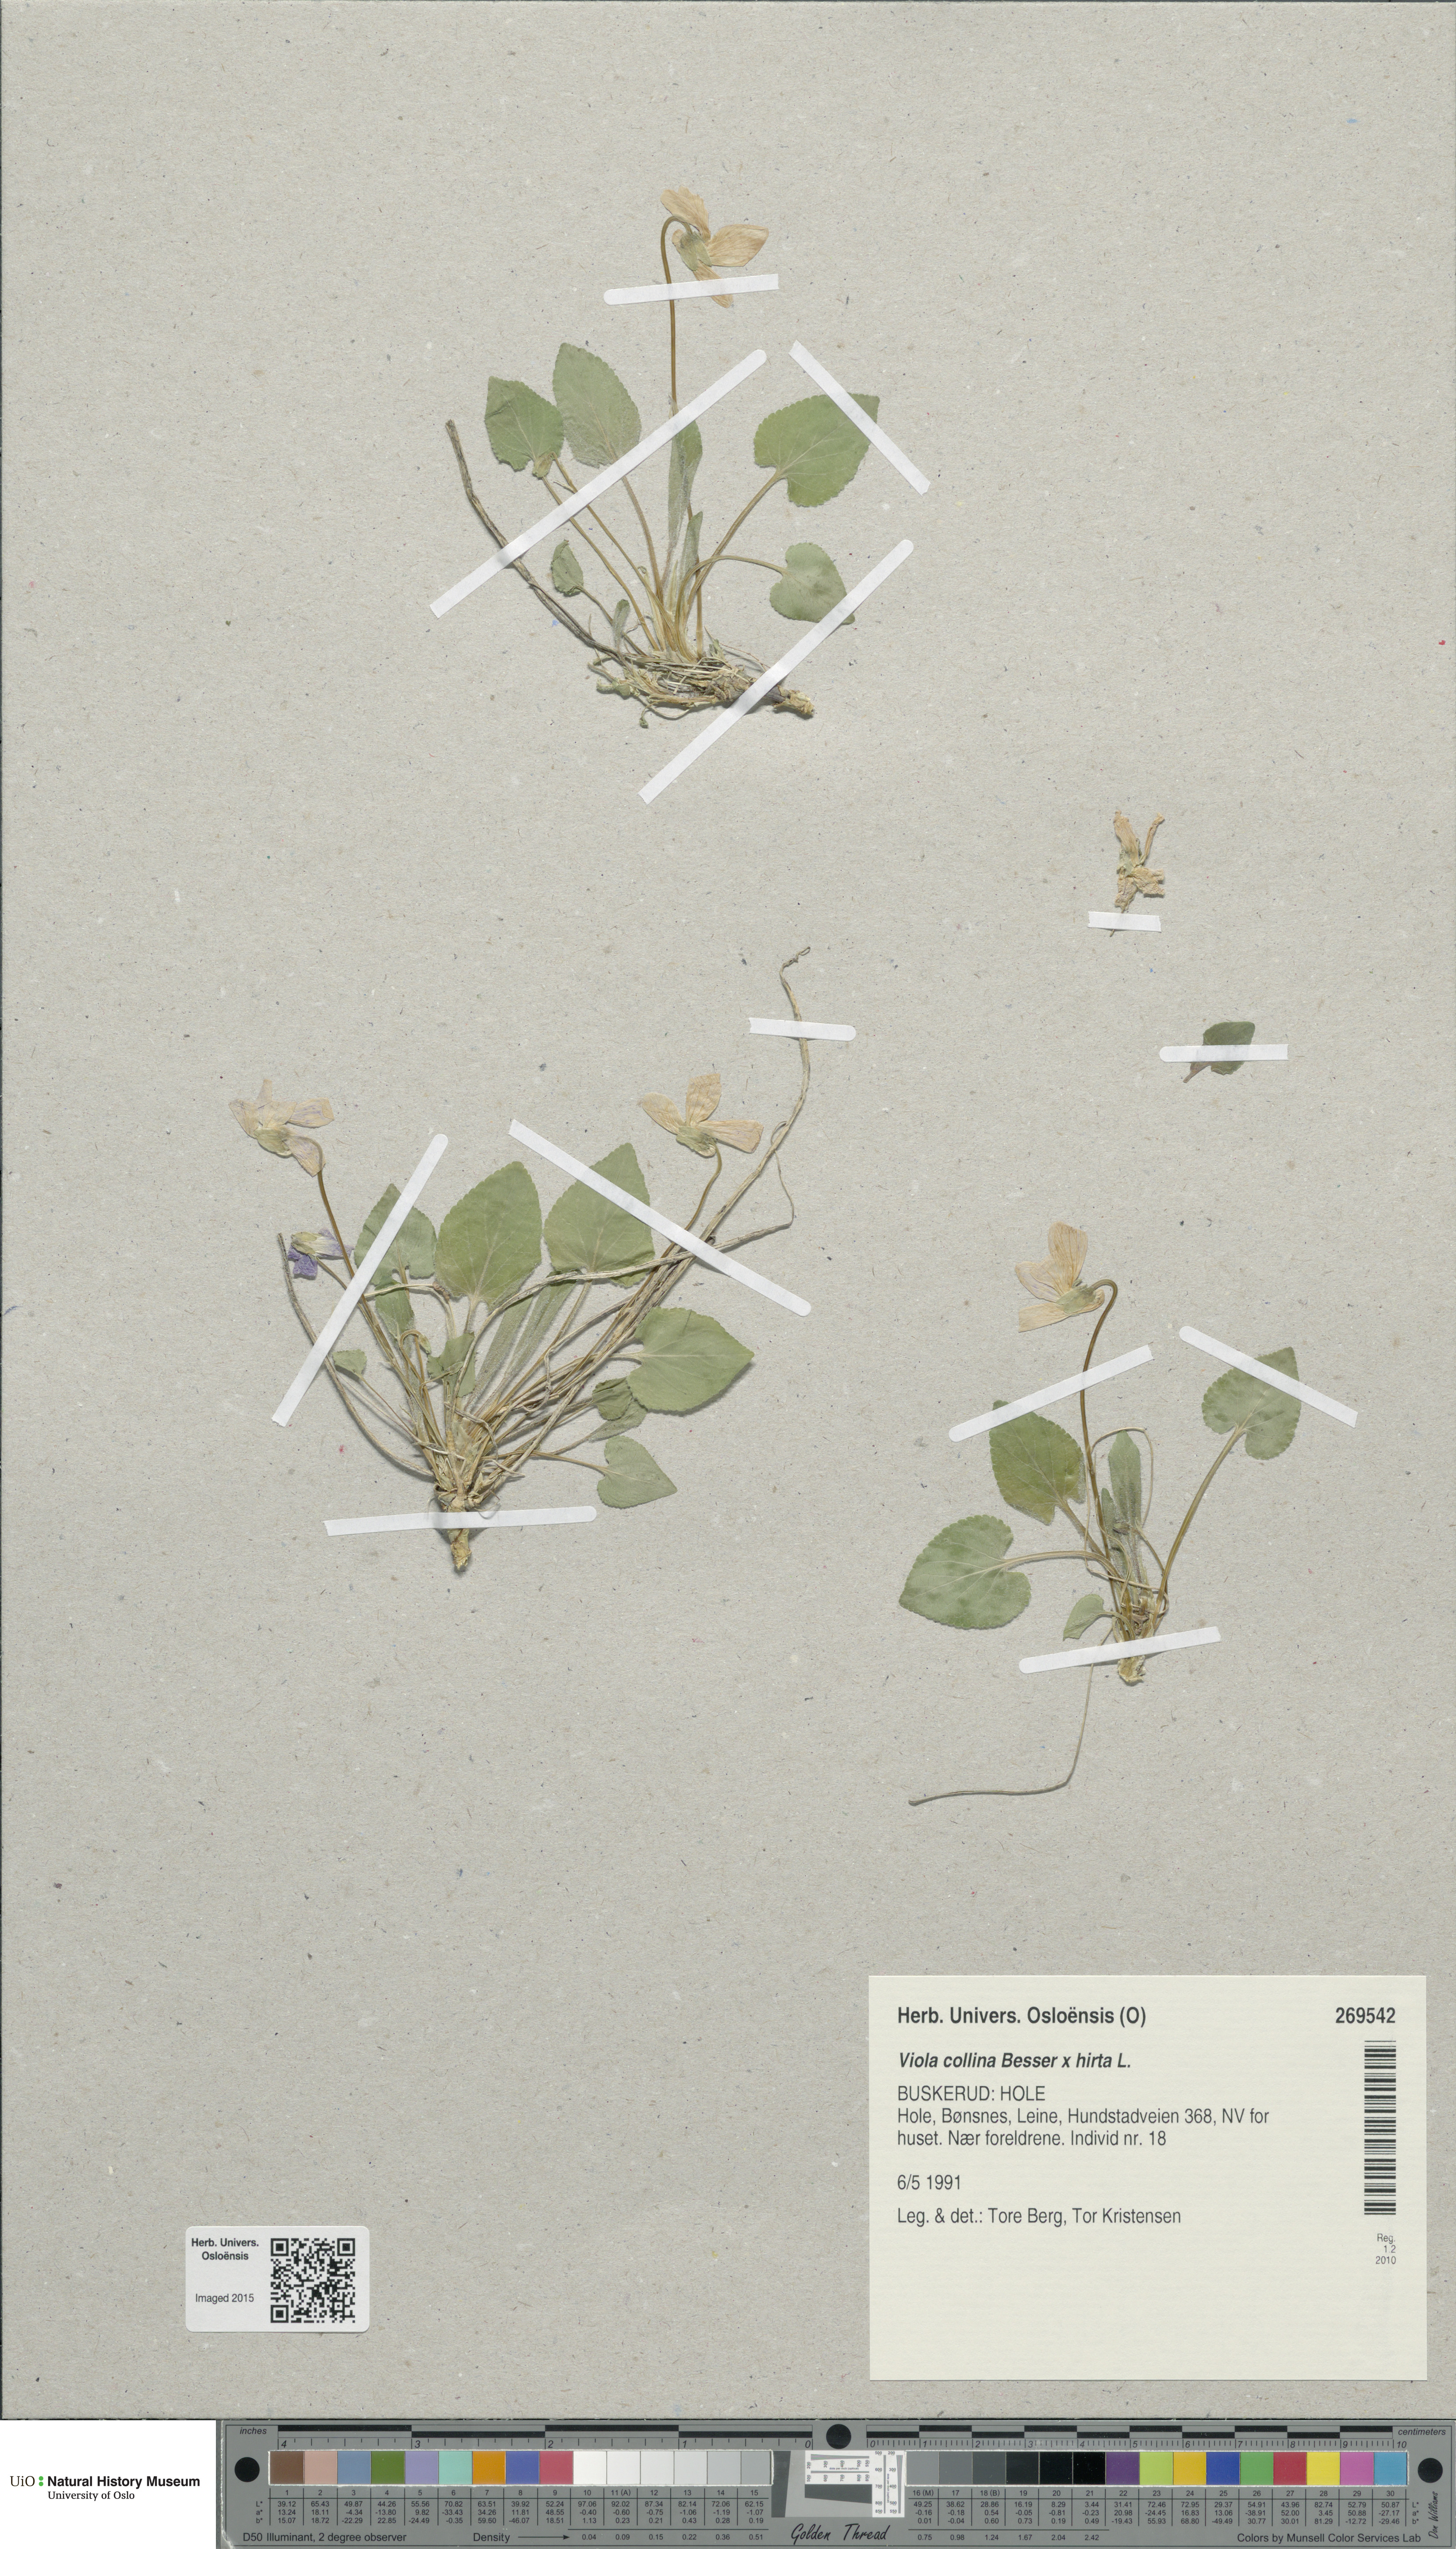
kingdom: Plantae
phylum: Tracheophyta
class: Magnoliopsida
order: Malpighiales
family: Violaceae
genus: Viola
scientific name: Viola
